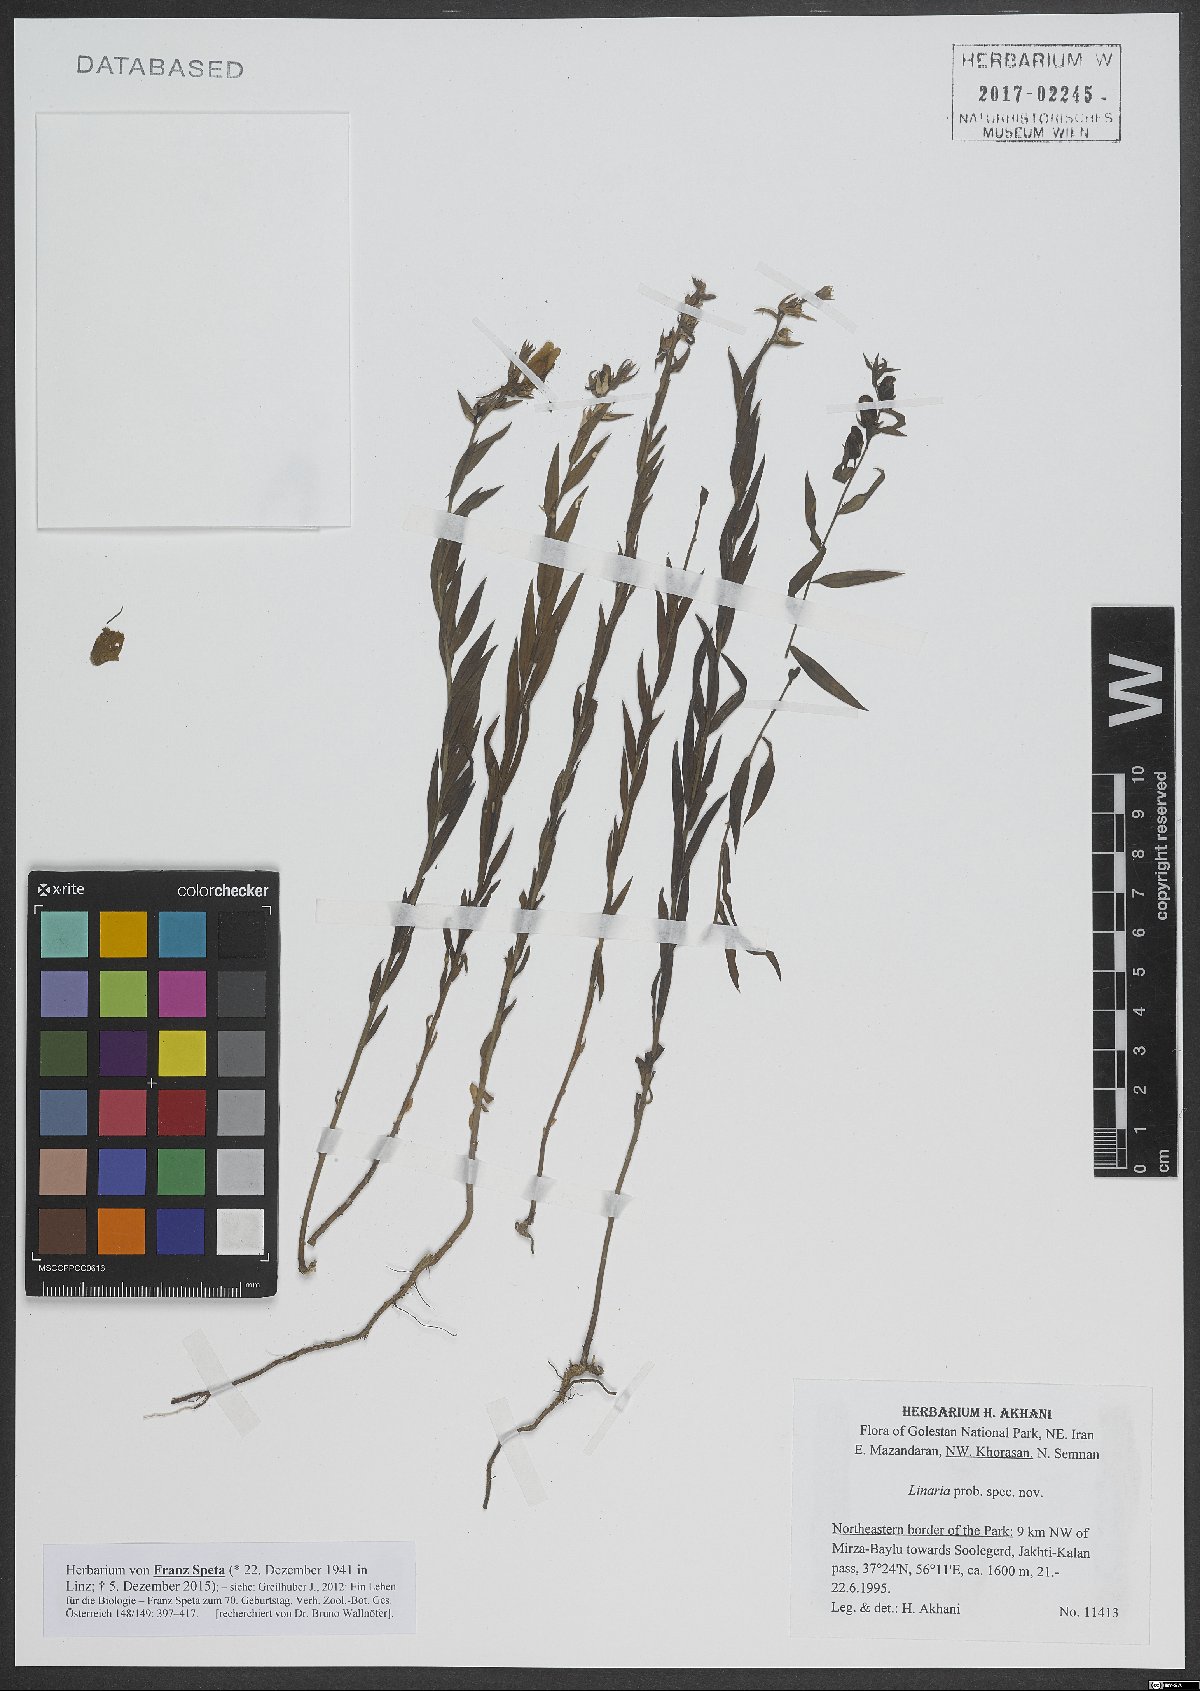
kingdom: Plantae
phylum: Tracheophyta
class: Magnoliopsida
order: Lamiales
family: Plantaginaceae
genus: Linaria
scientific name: Linaria
